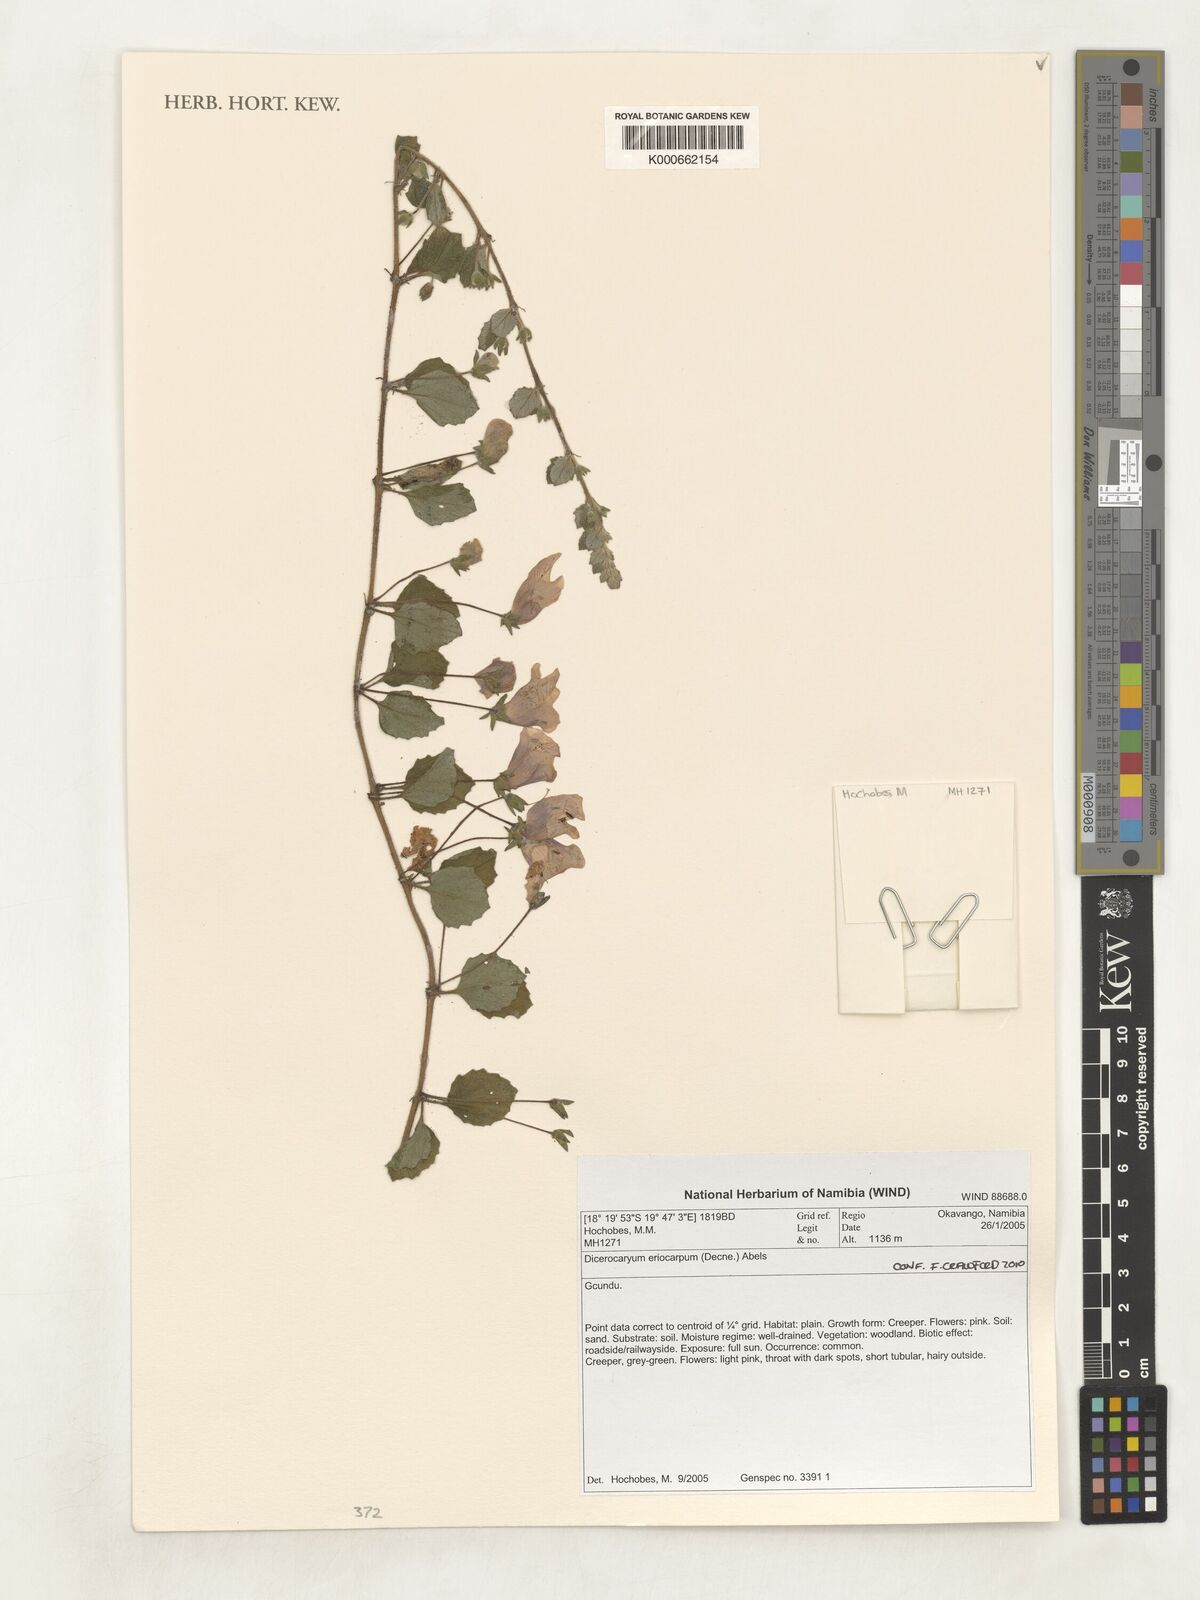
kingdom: Plantae
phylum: Tracheophyta
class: Magnoliopsida
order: Lamiales
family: Pedaliaceae
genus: Dicerocaryum
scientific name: Dicerocaryum eriocarpum
